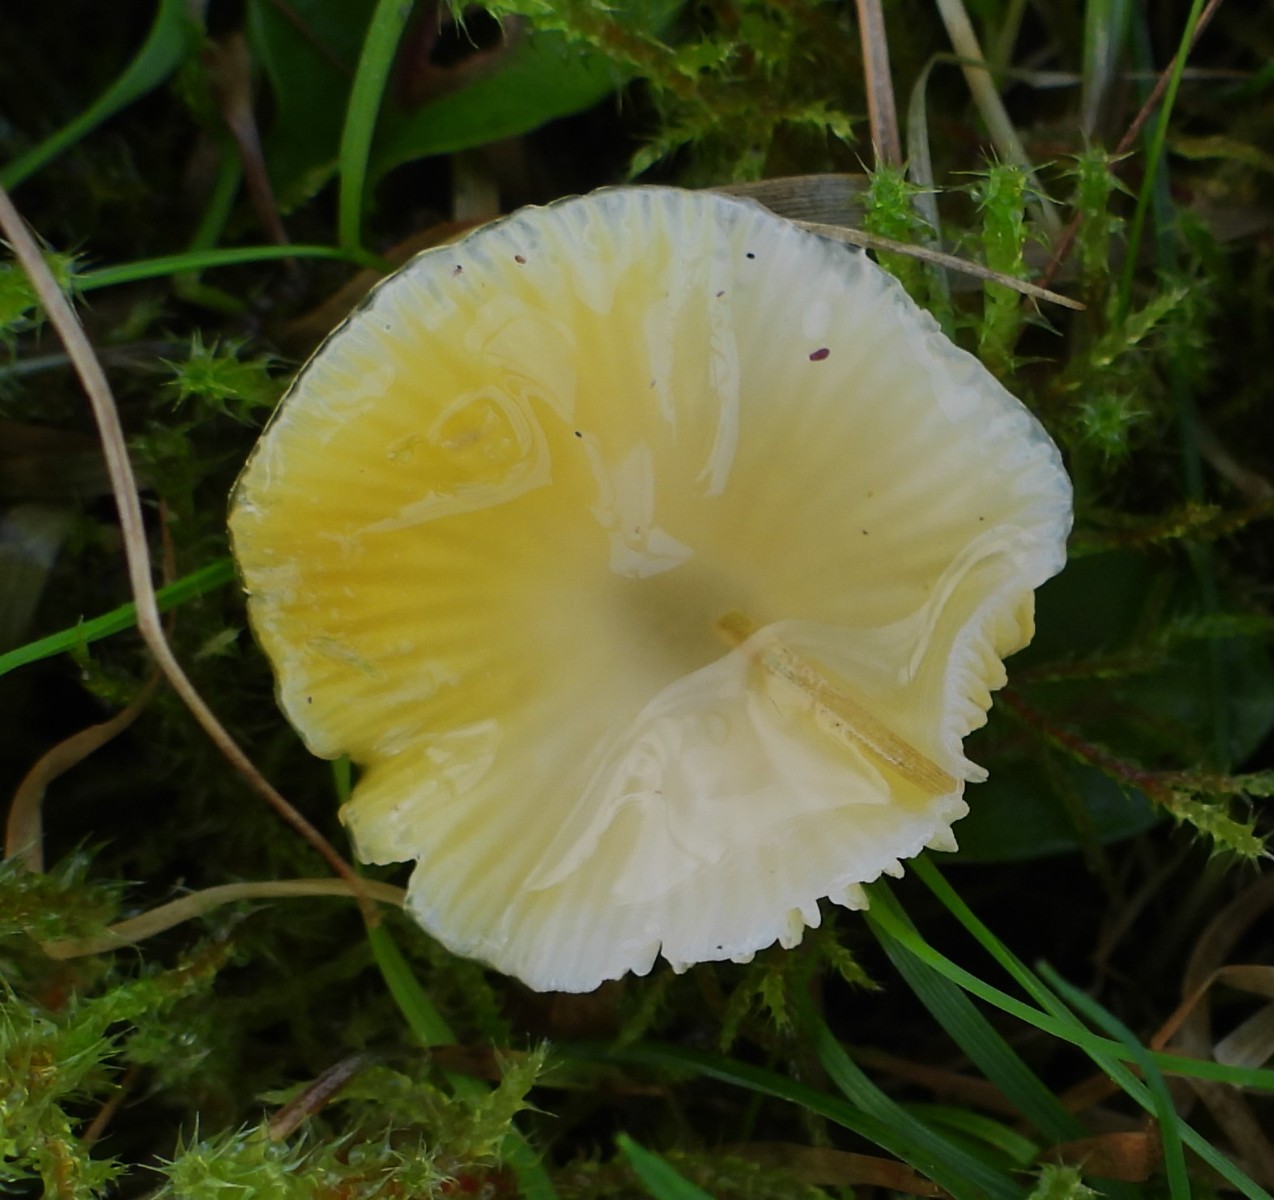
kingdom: Fungi
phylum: Basidiomycota
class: Agaricomycetes
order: Agaricales
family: Hygrophoraceae
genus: Hygrocybe
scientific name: Hygrocybe glutinipes
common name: slimstokket vokshat
